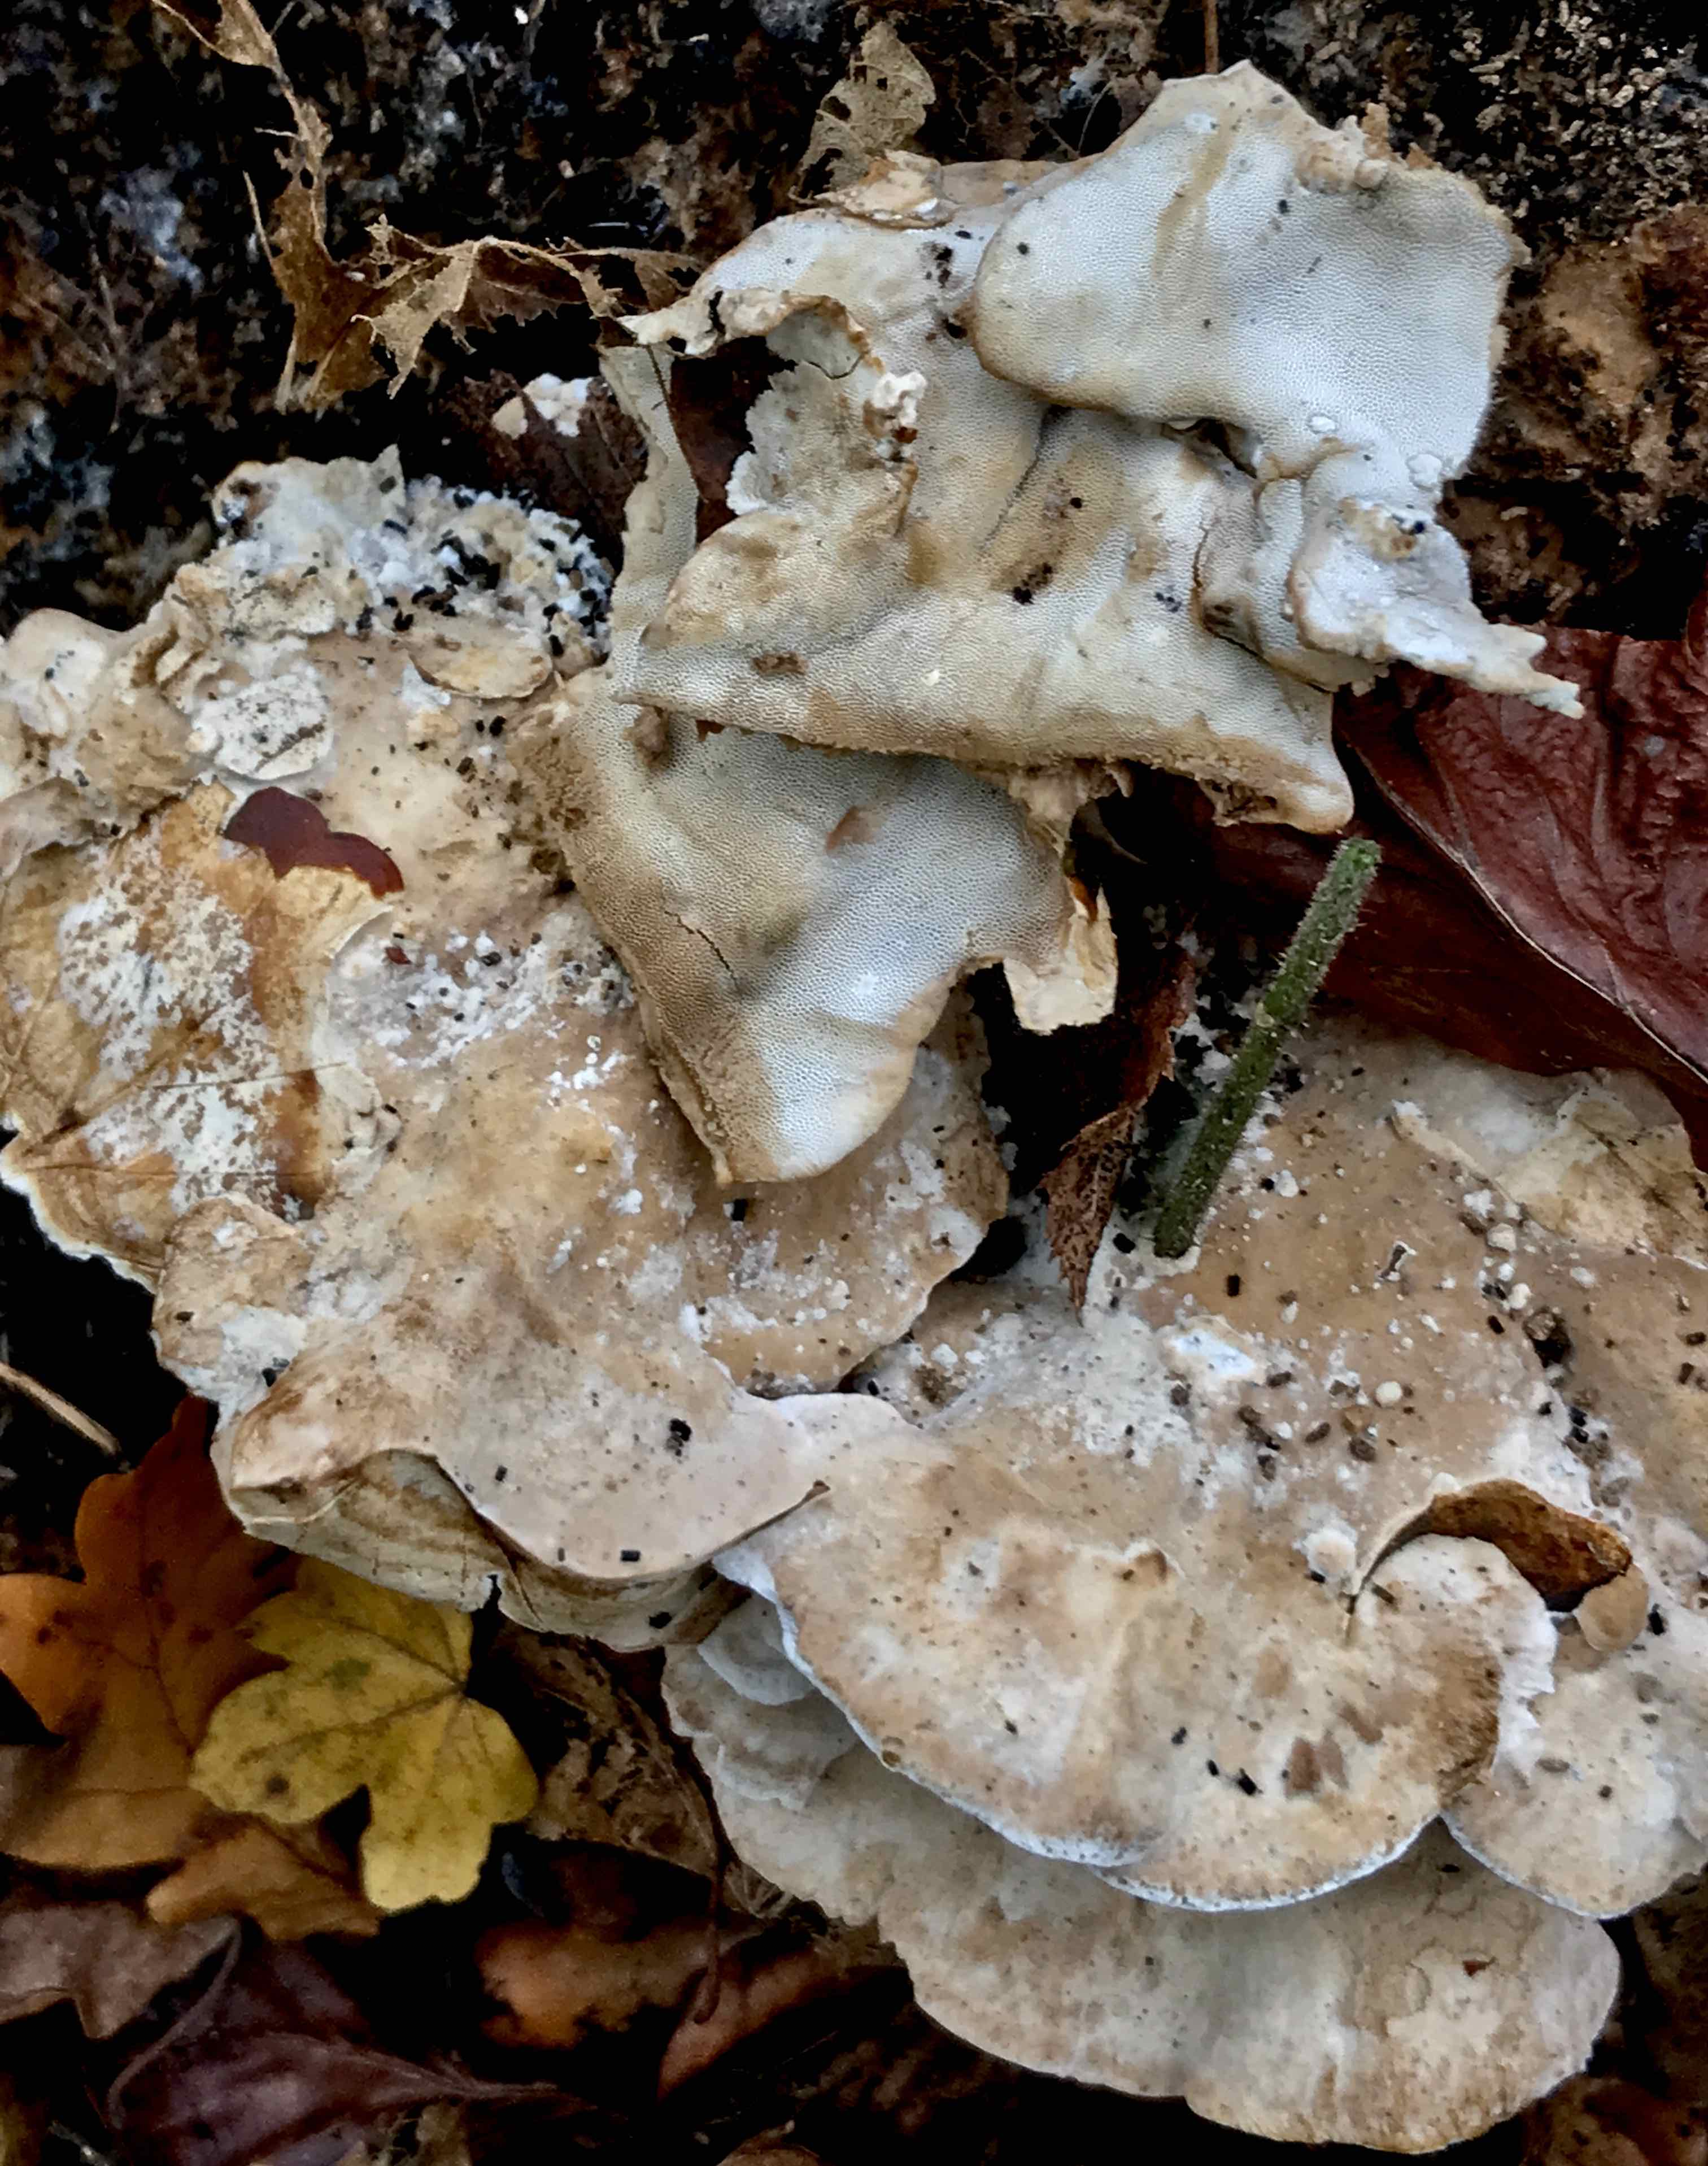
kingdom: Fungi
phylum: Basidiomycota
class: Agaricomycetes
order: Polyporales
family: Phanerochaetaceae
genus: Bjerkandera
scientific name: Bjerkandera fumosa
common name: grågul sodporesvamp
